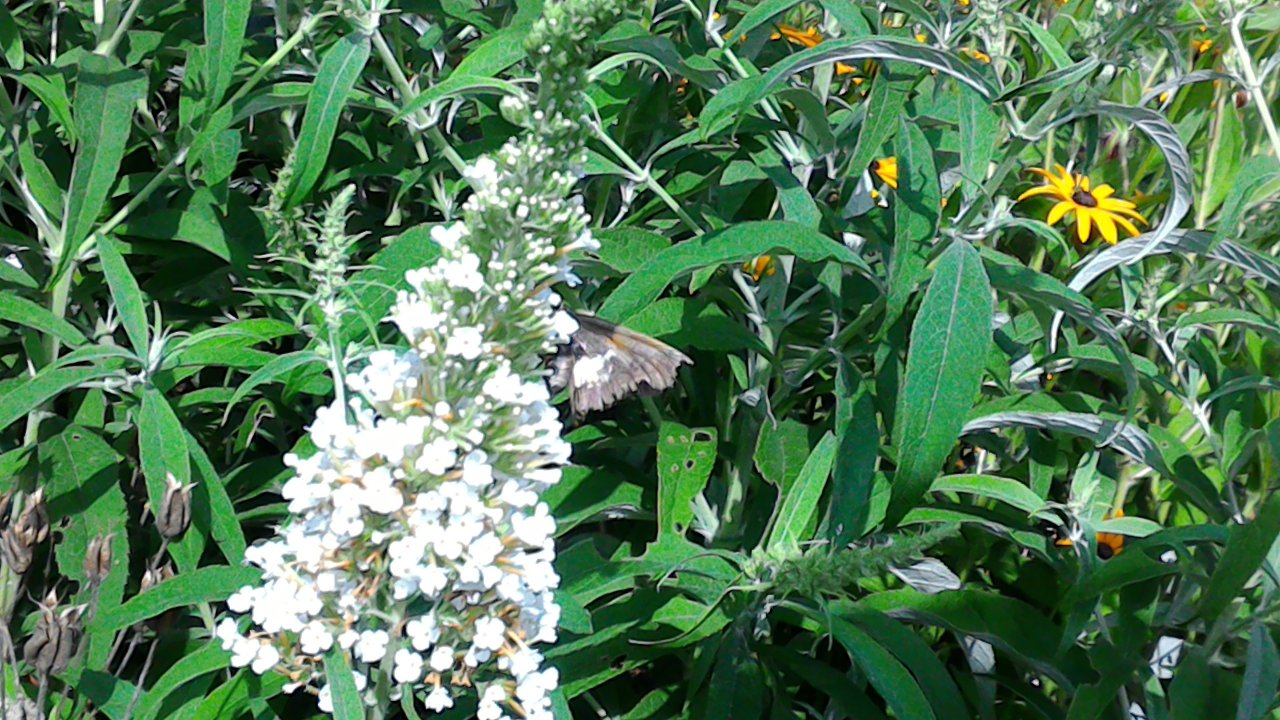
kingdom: Animalia
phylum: Arthropoda
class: Insecta
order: Lepidoptera
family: Hesperiidae
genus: Epargyreus
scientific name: Epargyreus clarus
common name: Silver-spotted Skipper
